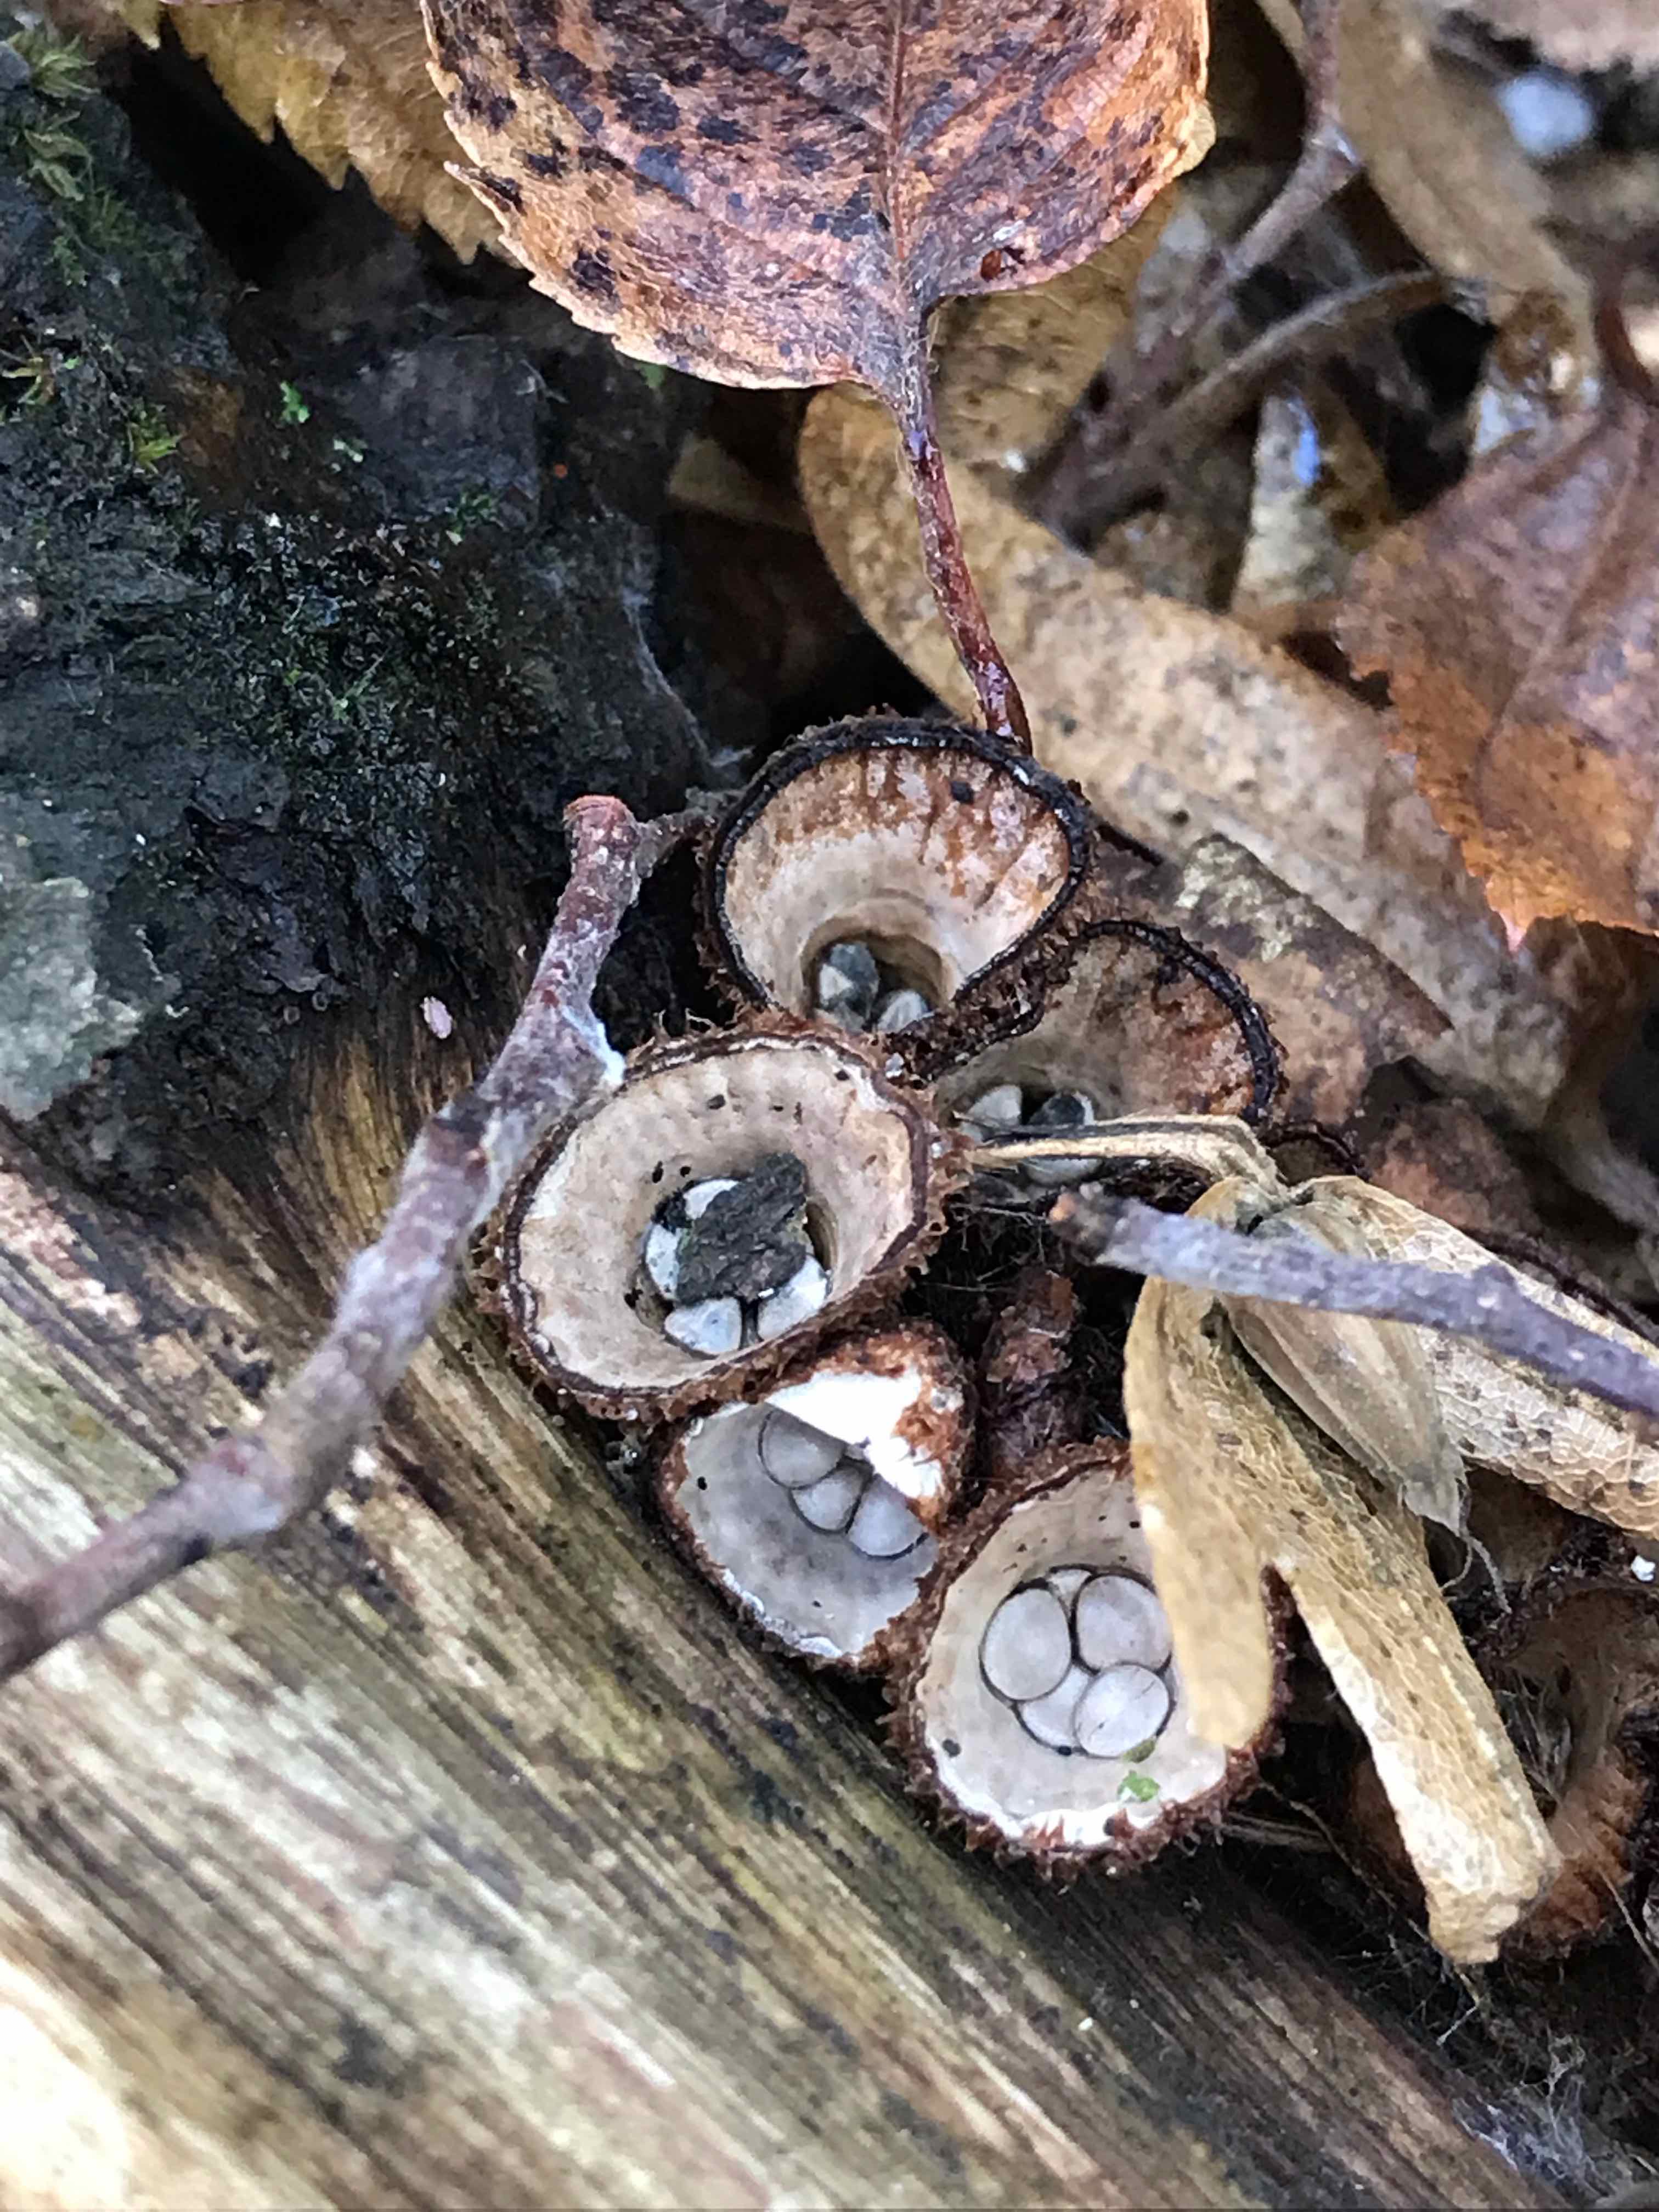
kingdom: Fungi
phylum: Basidiomycota
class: Agaricomycetes
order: Agaricales
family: Agaricaceae
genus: Cyathus
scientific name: Cyathus striatus
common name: stribet redesvamp
